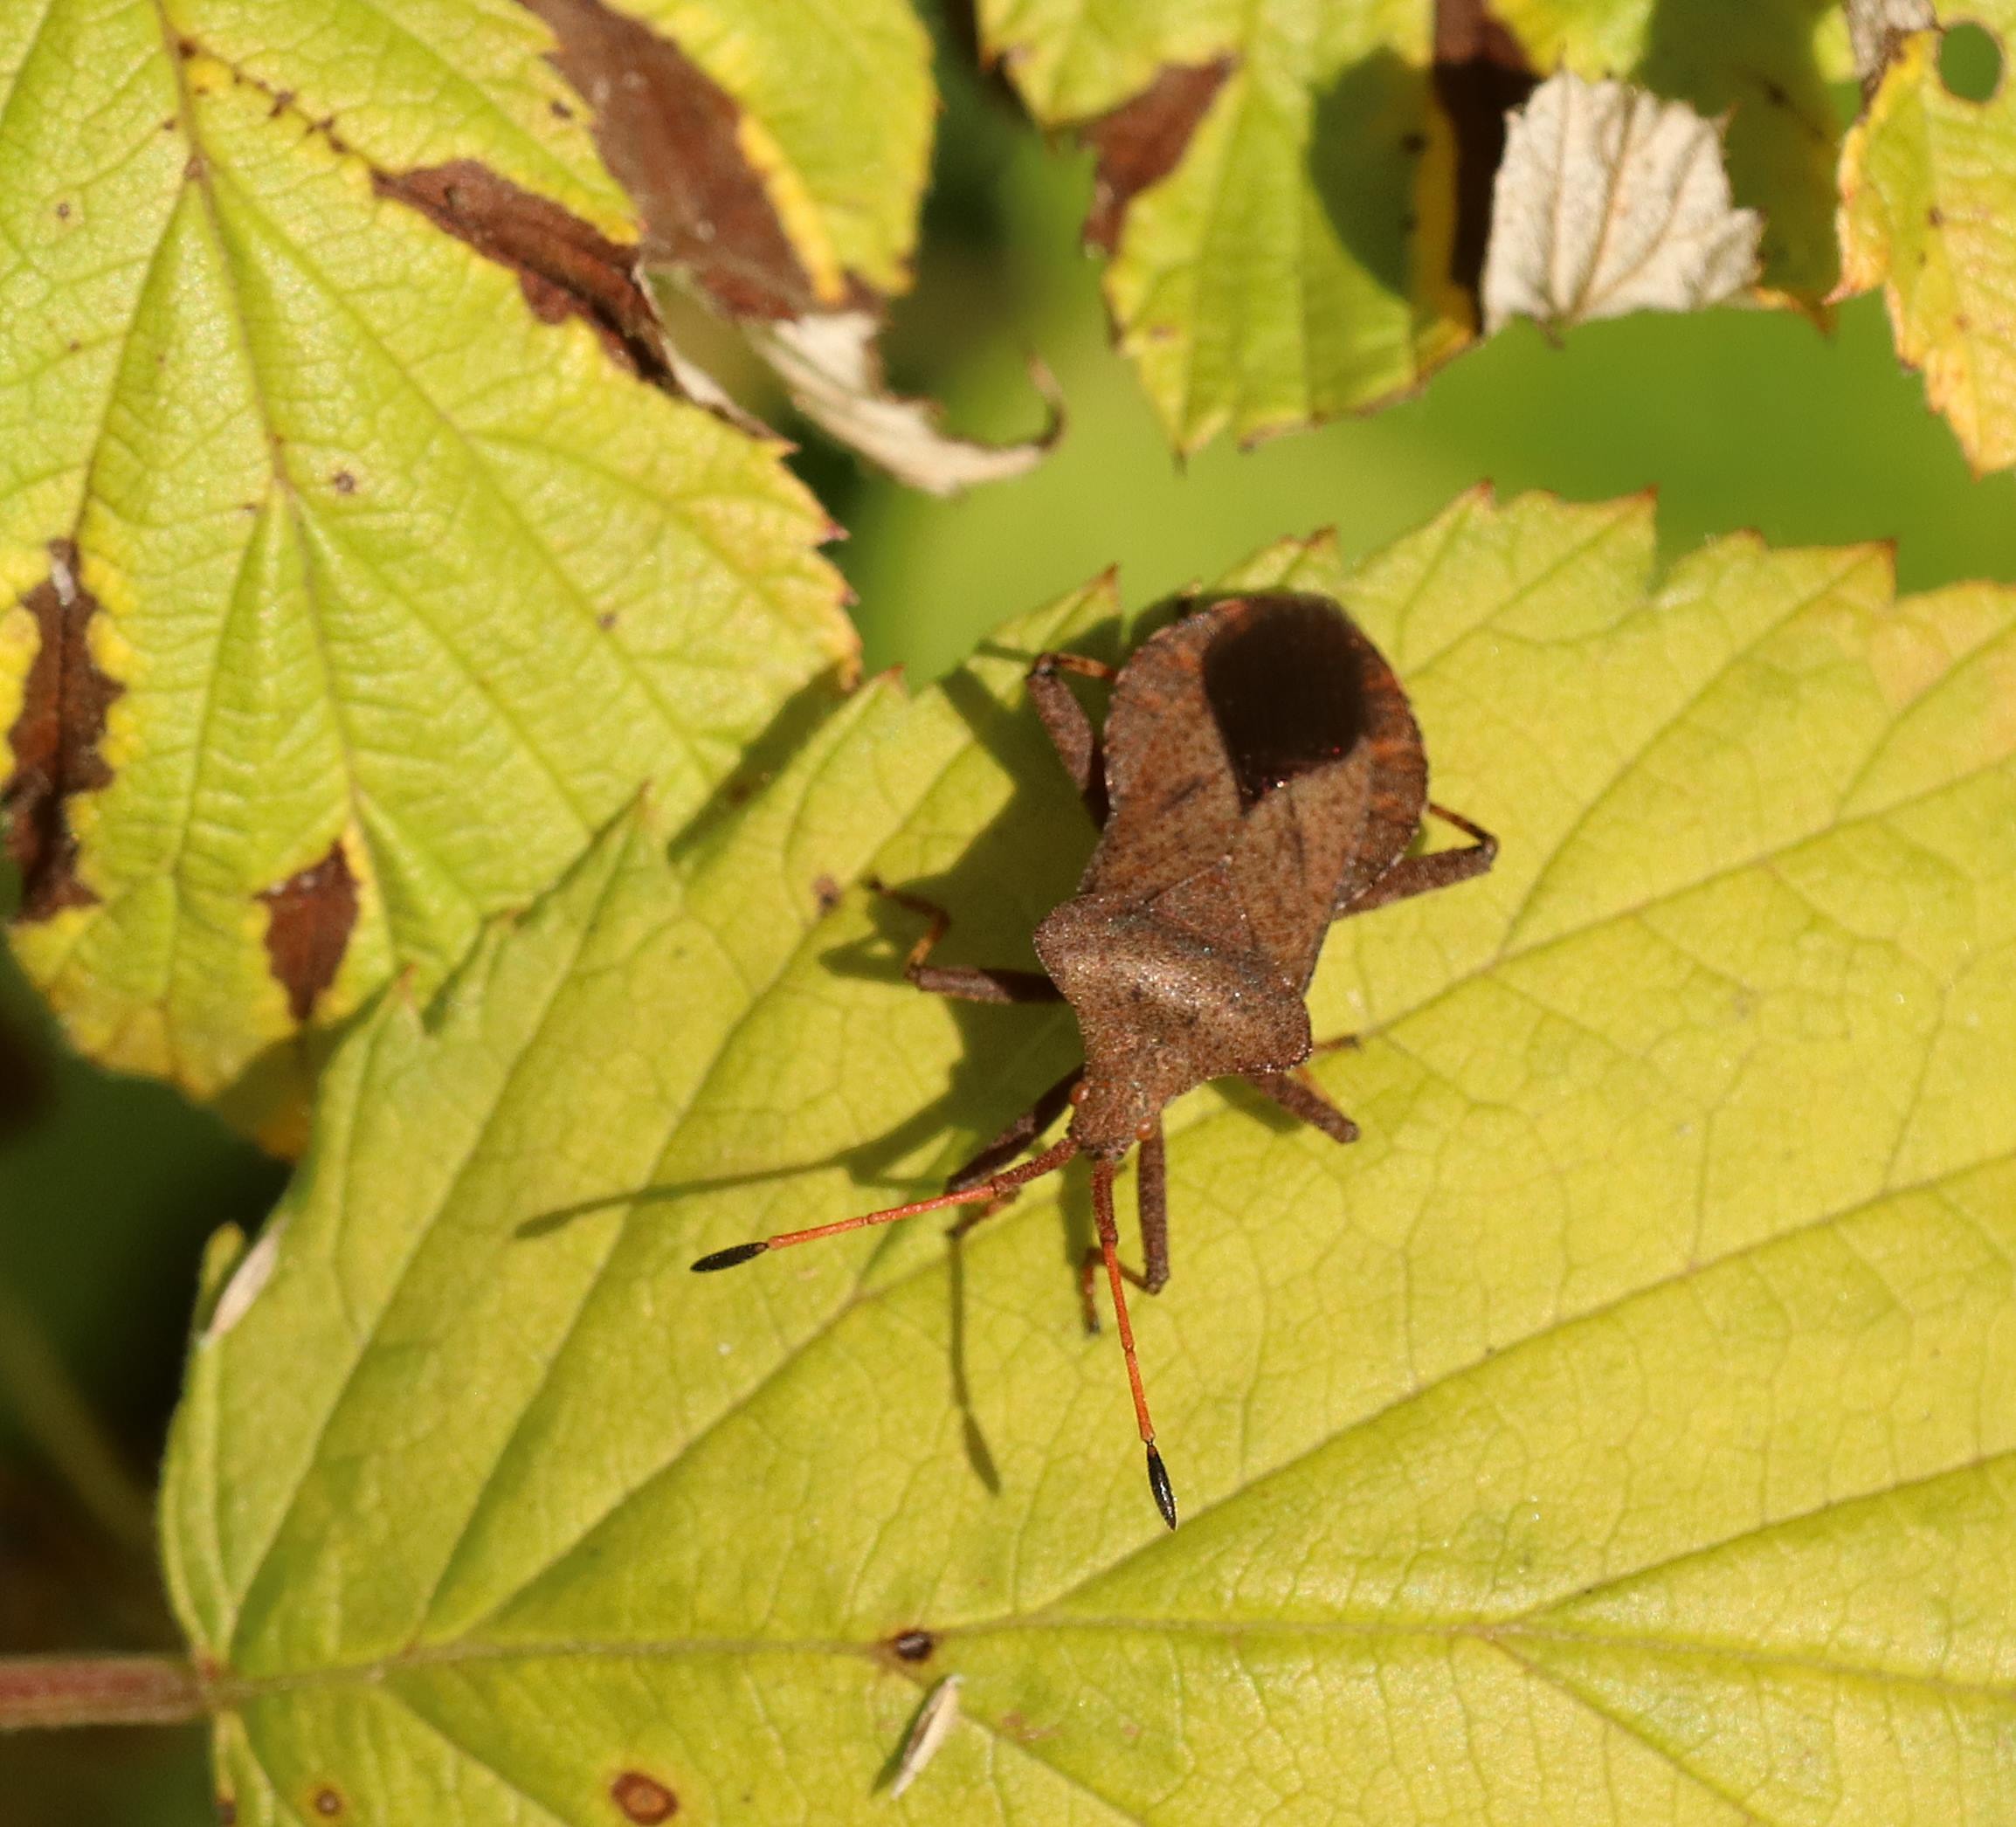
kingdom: Animalia
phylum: Arthropoda
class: Insecta
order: Hemiptera
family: Coreidae
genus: Coreus
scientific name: Coreus marginatus
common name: Skræppetæge
